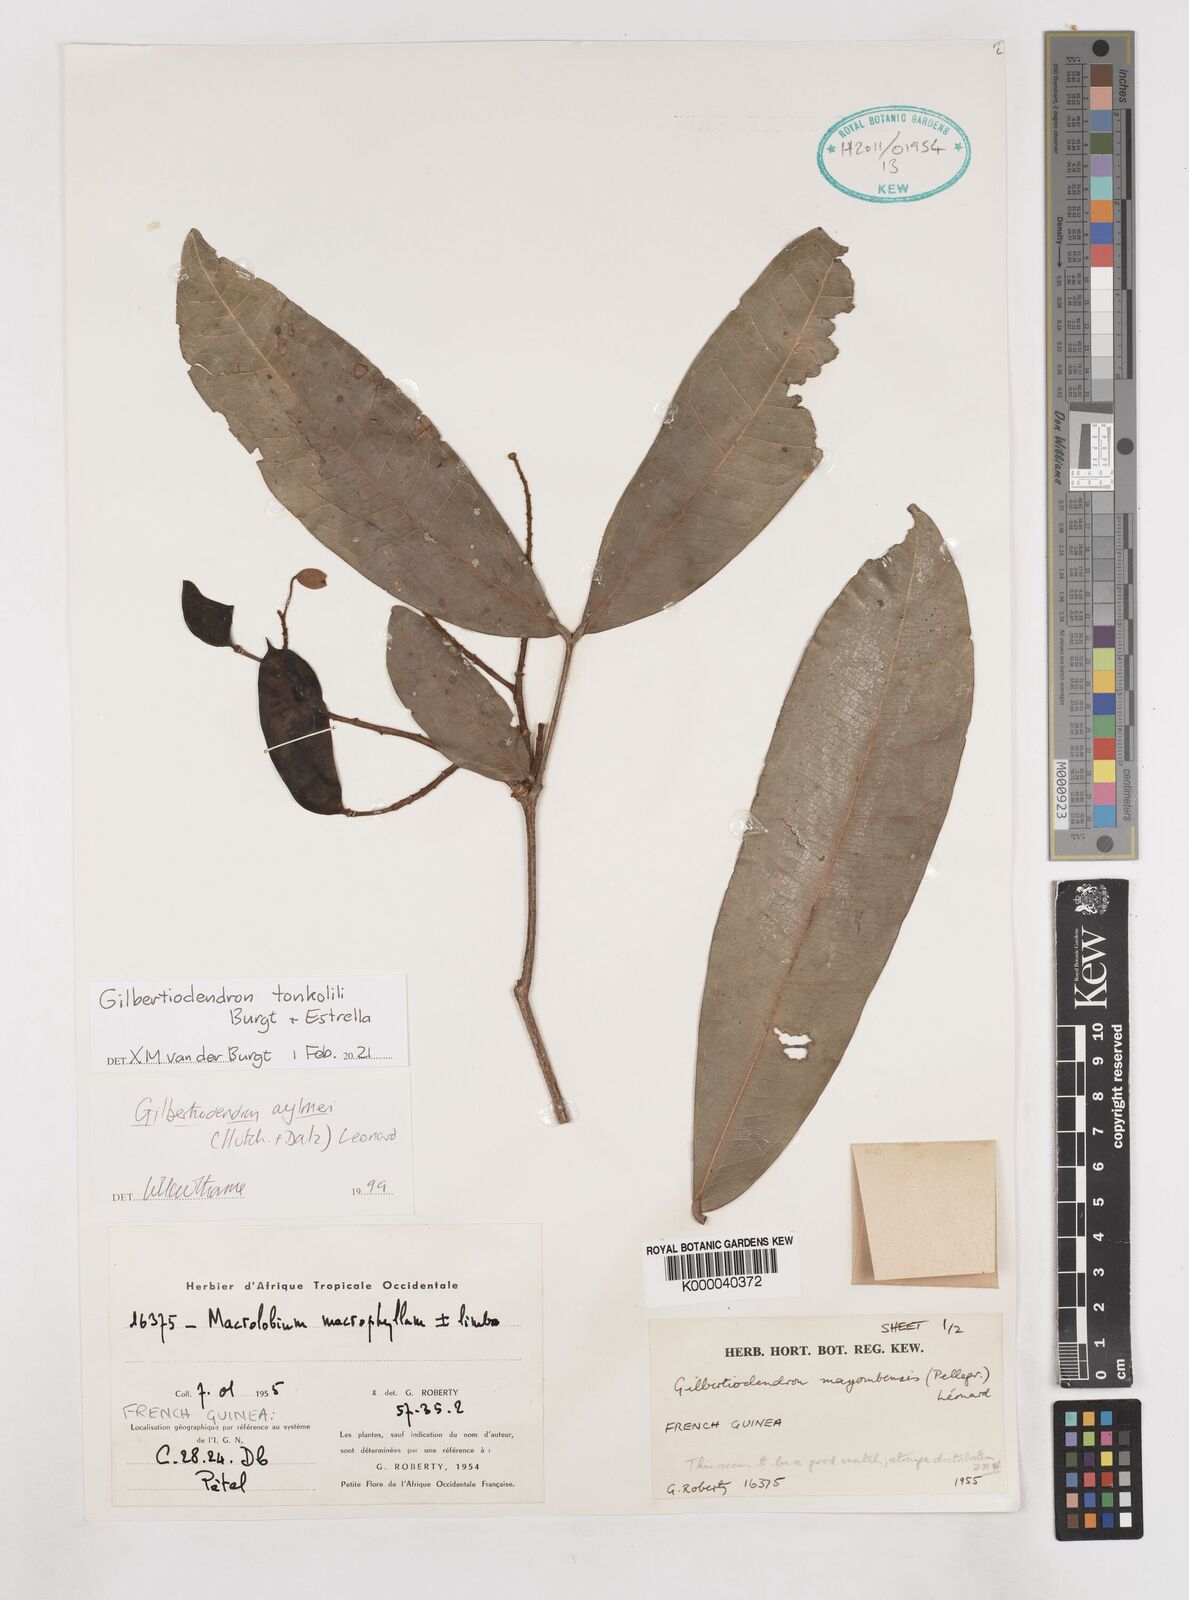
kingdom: Plantae
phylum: Tracheophyta
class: Magnoliopsida
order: Fabales
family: Fabaceae
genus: Gilbertiodendron
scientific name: Gilbertiodendron
